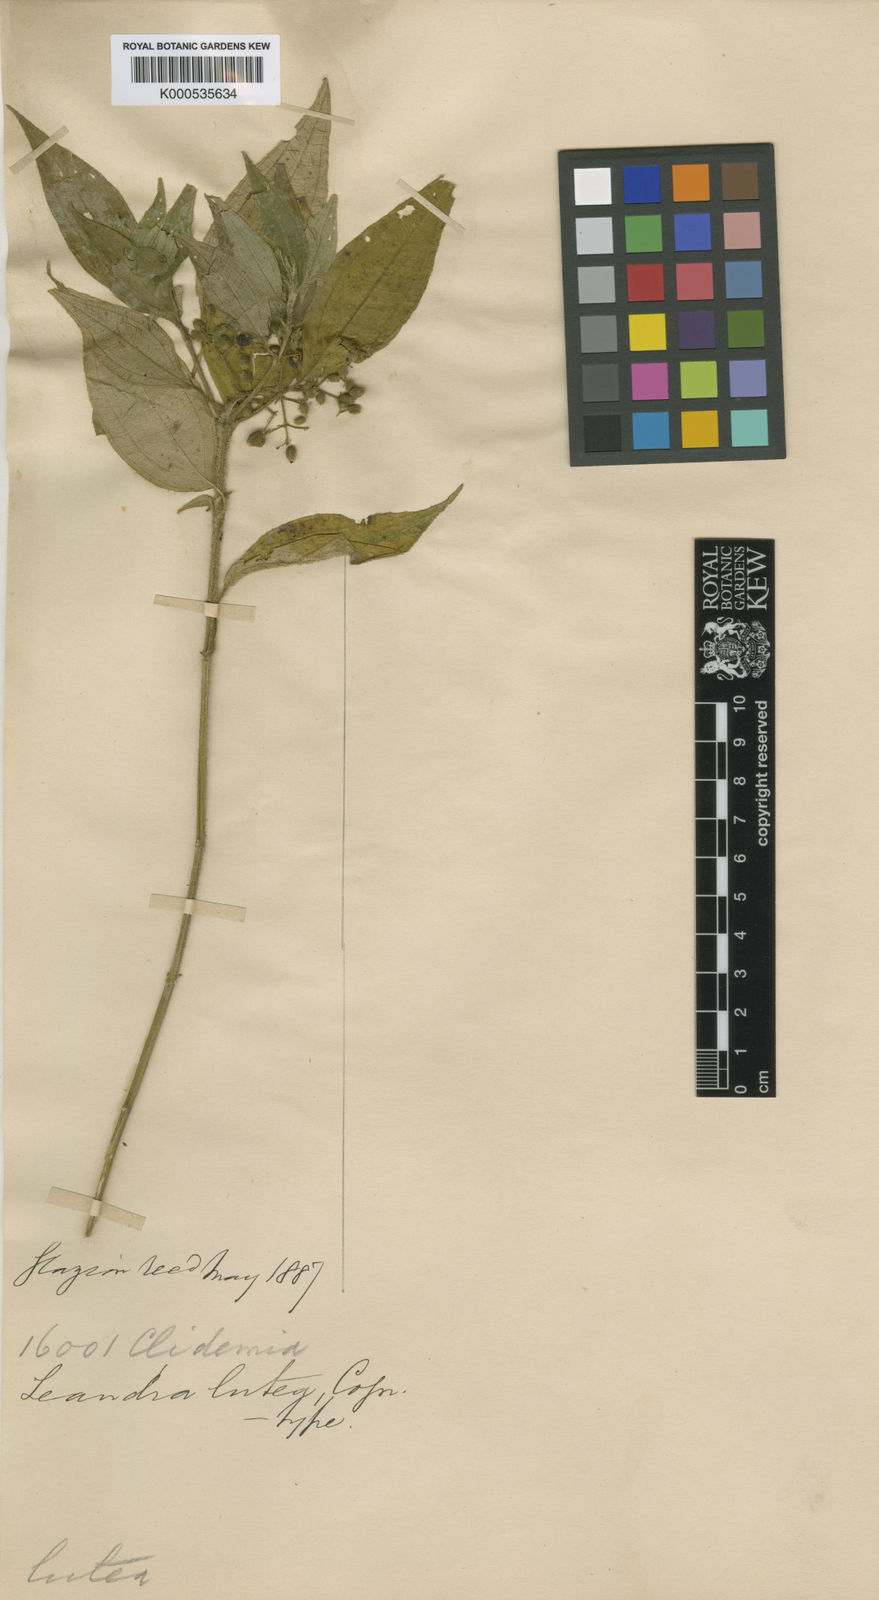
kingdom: Plantae
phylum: Tracheophyta
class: Magnoliopsida
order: Myrtales
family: Melastomataceae
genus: Miconia
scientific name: Miconia lutea
